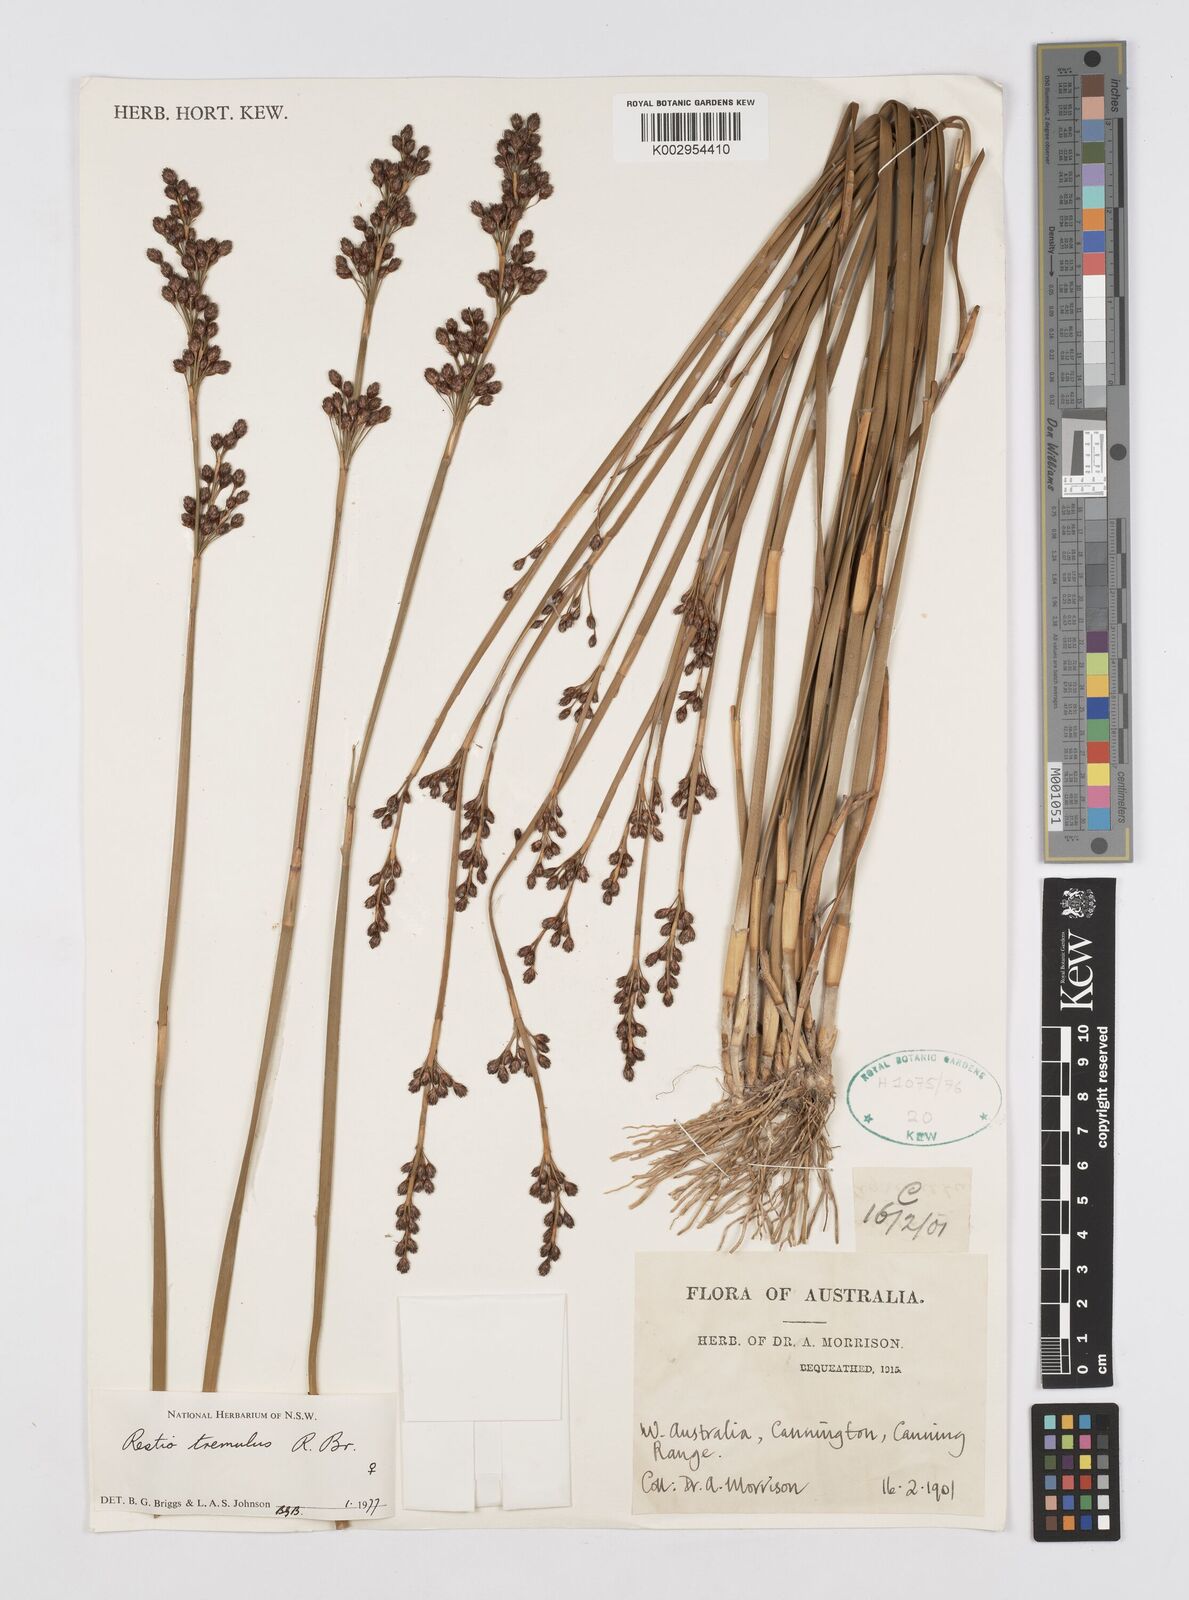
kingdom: Plantae
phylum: Tracheophyta
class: Liliopsida
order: Poales
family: Restionaceae
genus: Tremulina
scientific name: Tremulina tremula
